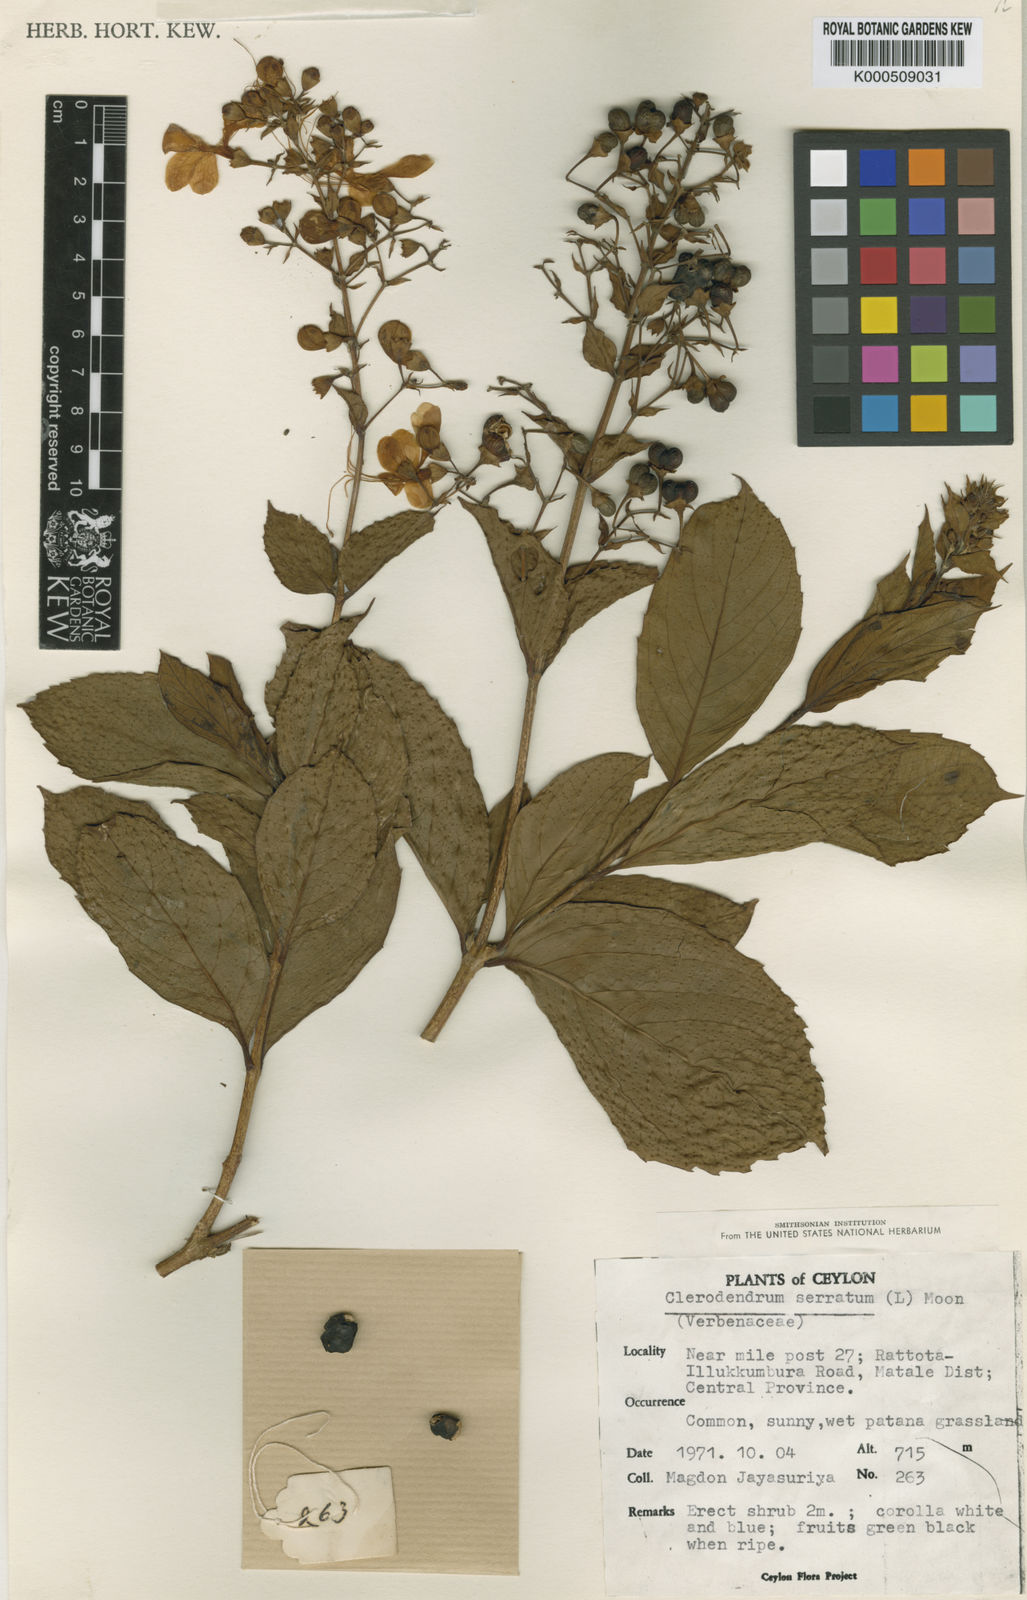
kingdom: Plantae
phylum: Tracheophyta
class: Magnoliopsida
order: Lamiales
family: Lamiaceae
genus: Rotheca
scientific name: Rotheca serrata
